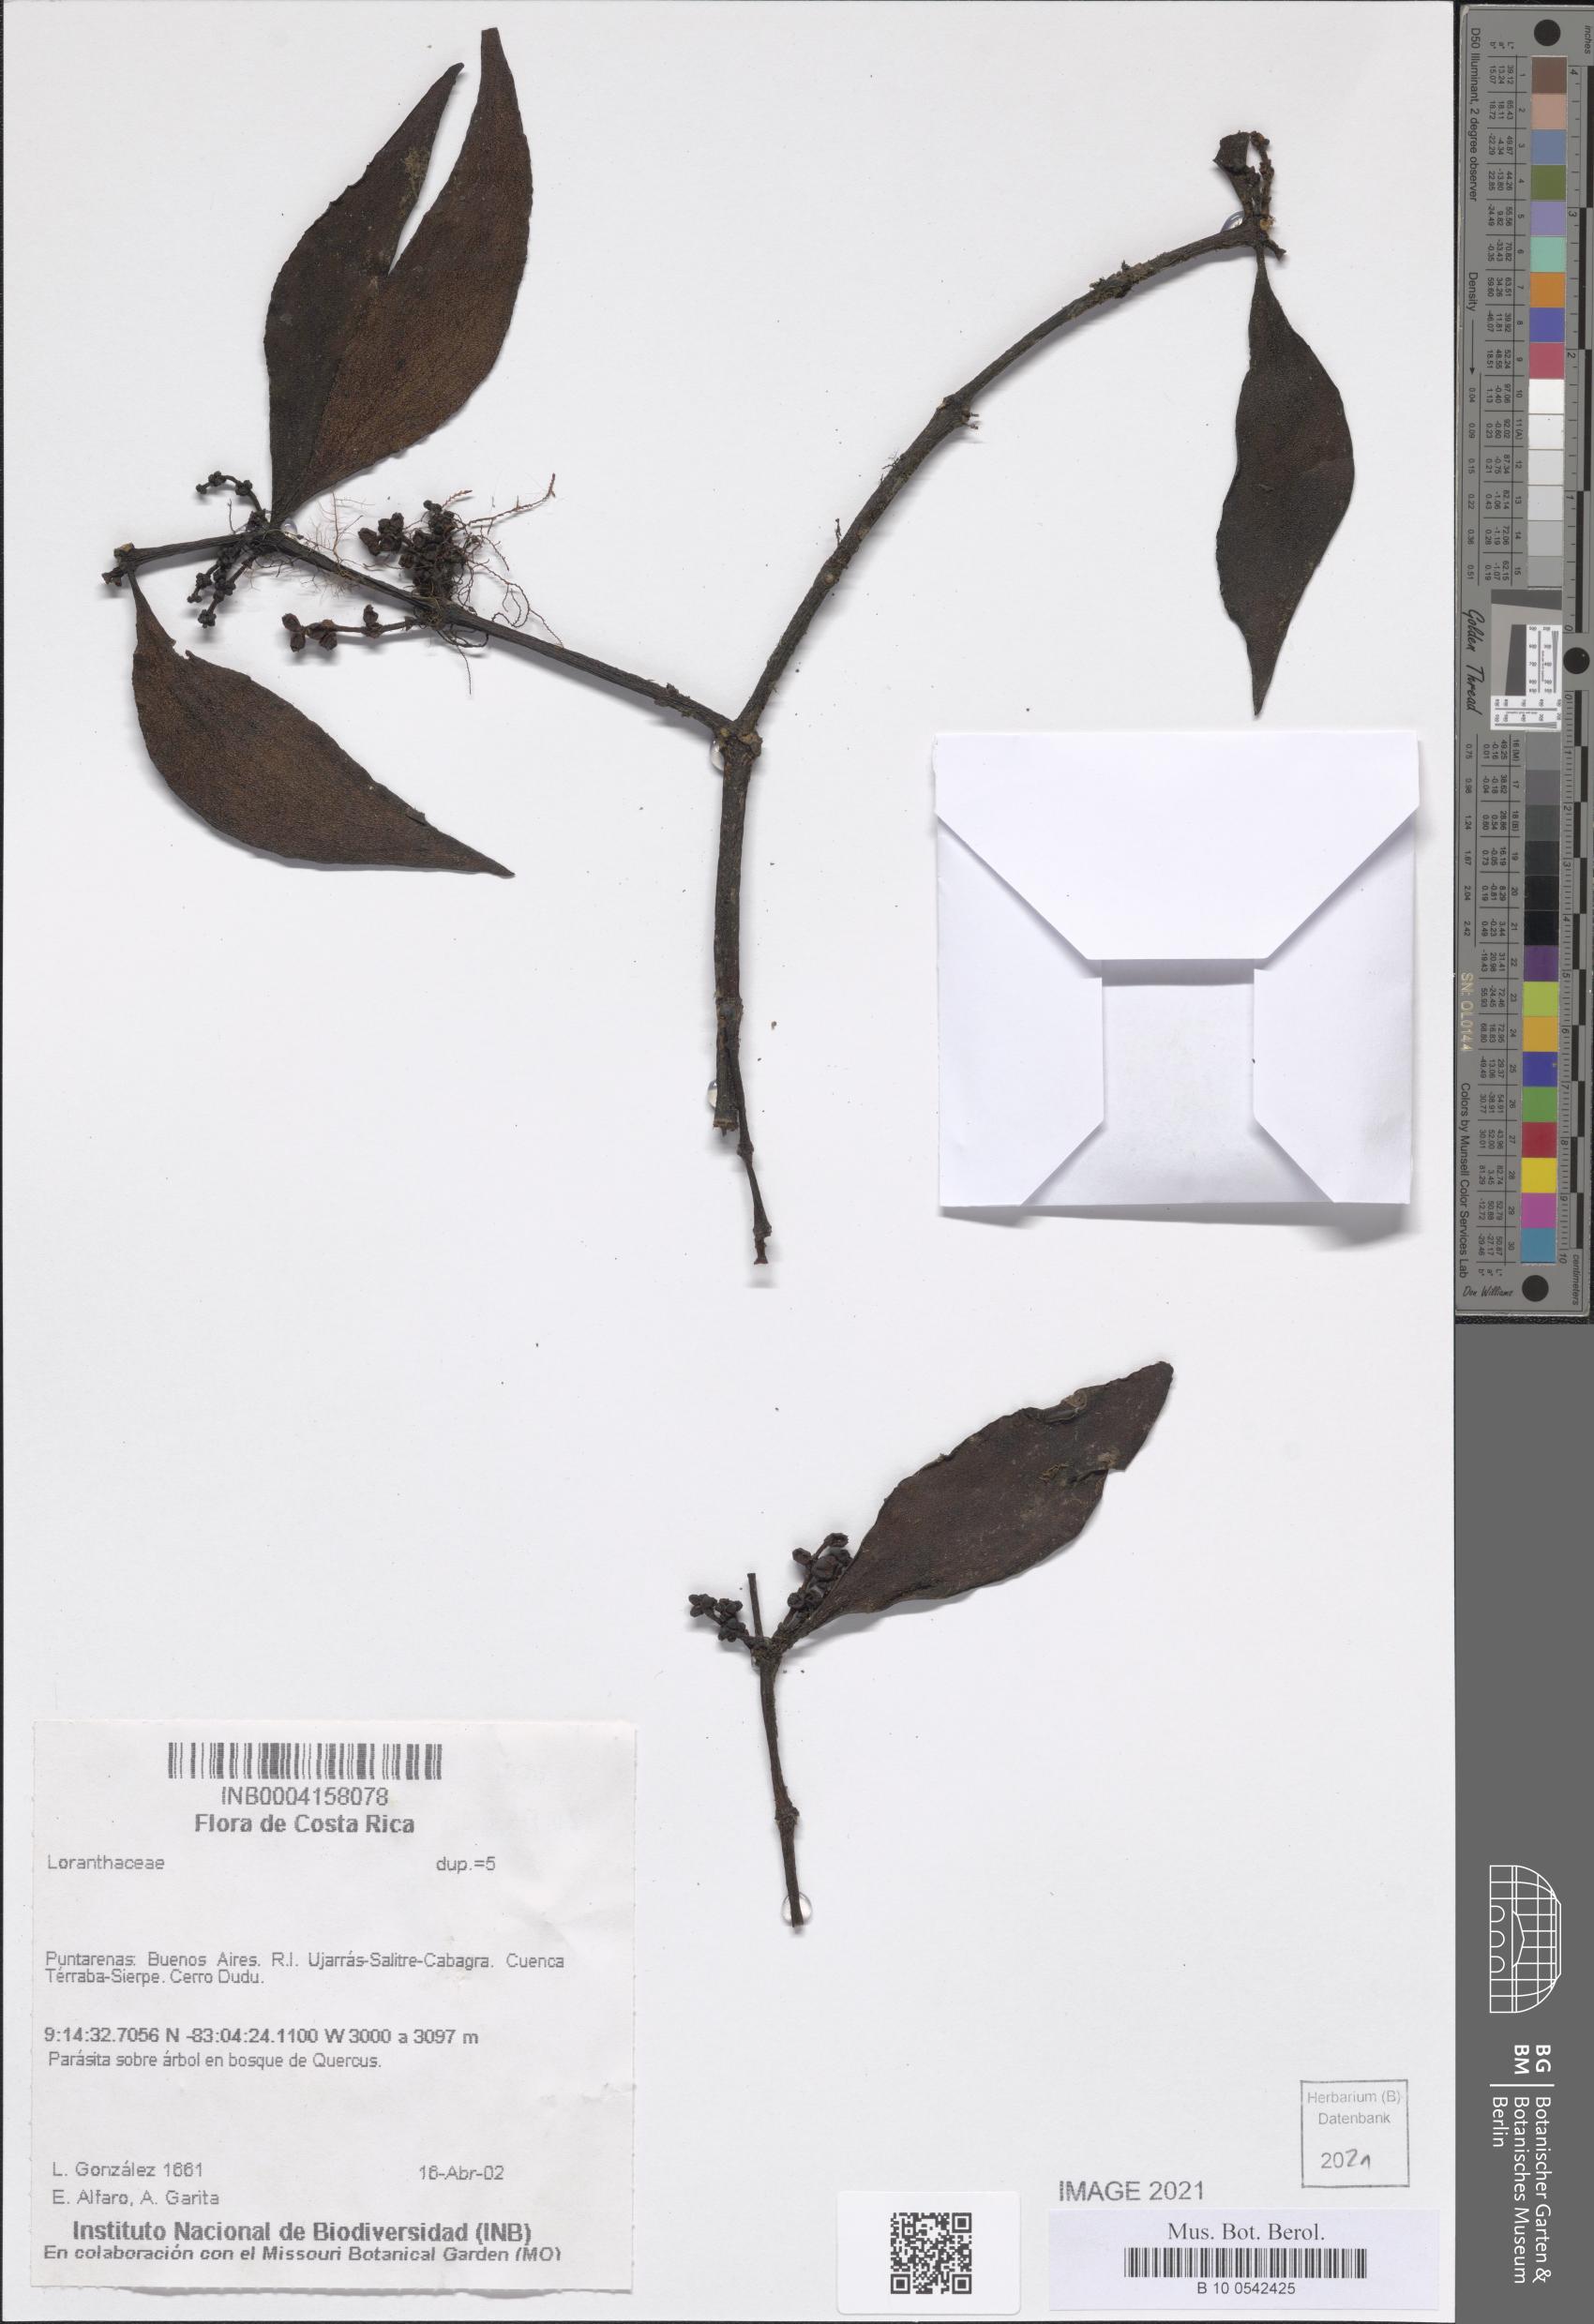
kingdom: Plantae
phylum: Tracheophyta
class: Magnoliopsida
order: Santalales
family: Loranthaceae
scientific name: Loranthaceae
